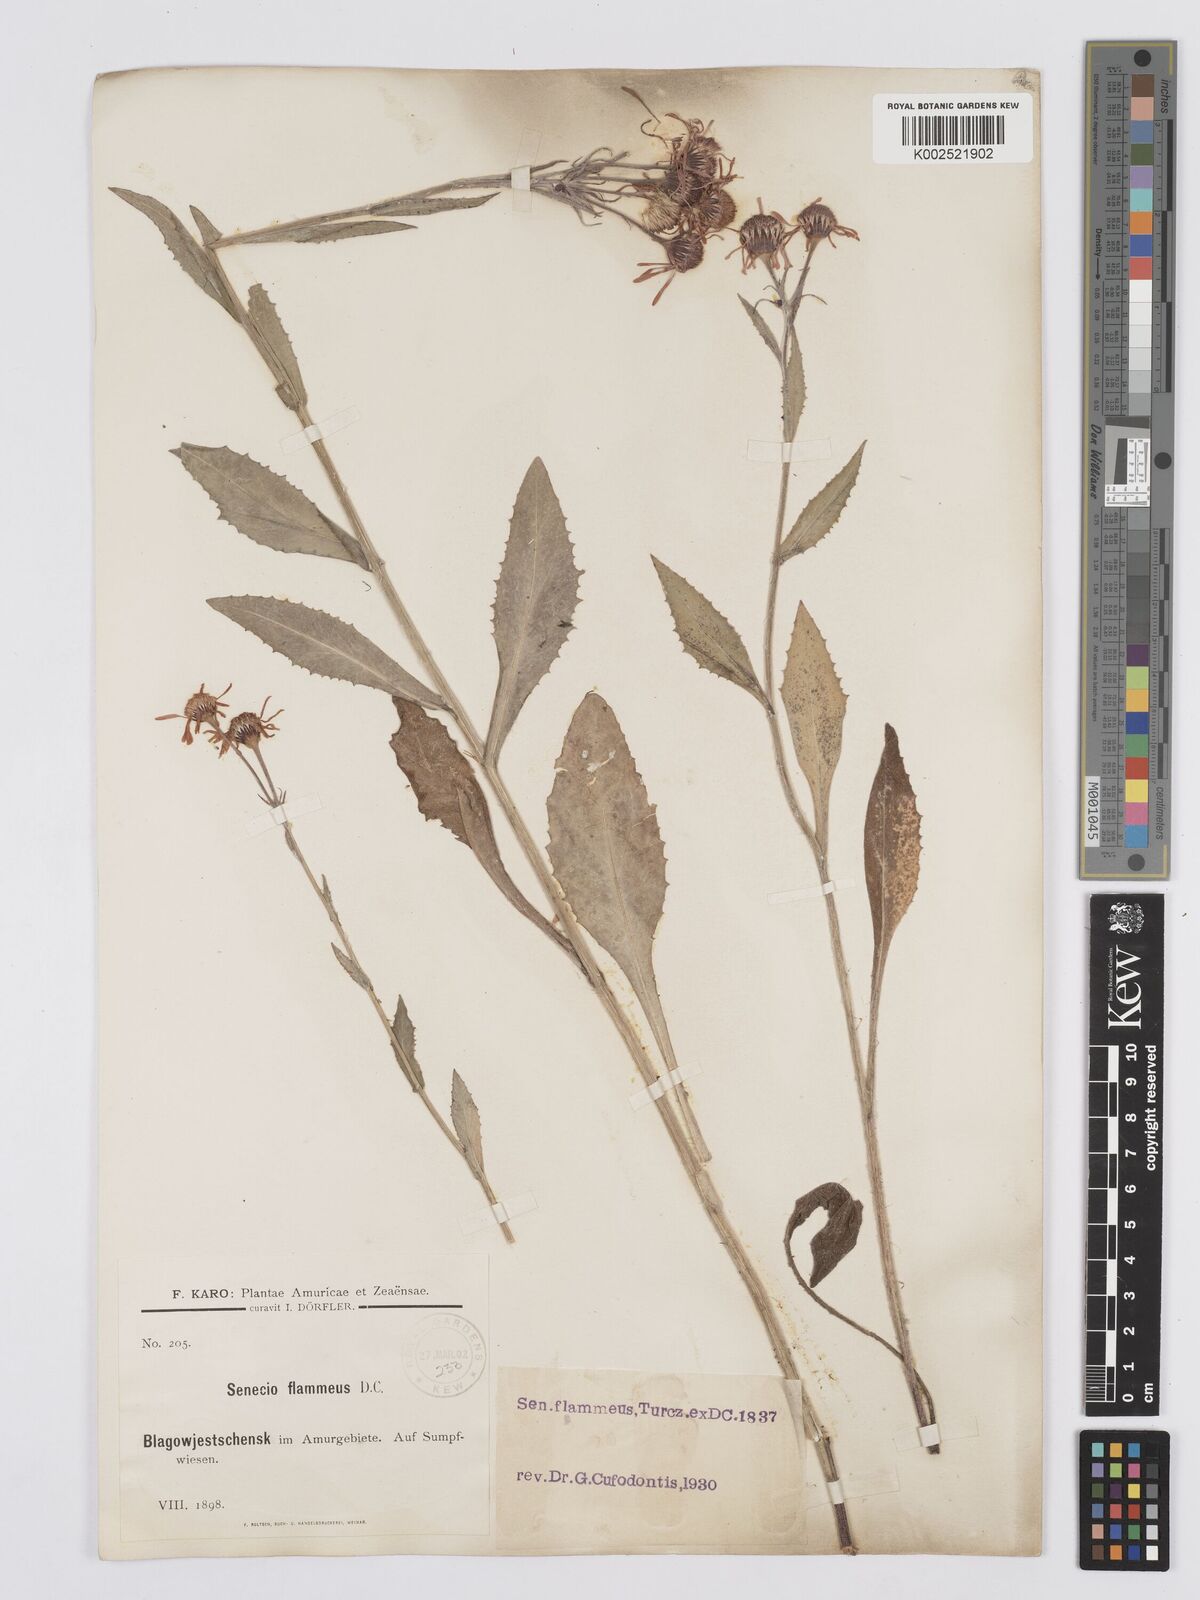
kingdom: Plantae
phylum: Tracheophyta
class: Magnoliopsida
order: Asterales
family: Asteraceae
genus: Tephroseris
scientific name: Tephroseris flammea
